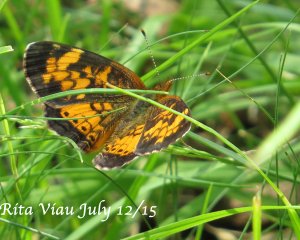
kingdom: Animalia
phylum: Arthropoda
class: Insecta
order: Lepidoptera
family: Nymphalidae
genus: Phyciodes
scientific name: Phyciodes tharos
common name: Northern Crescent
